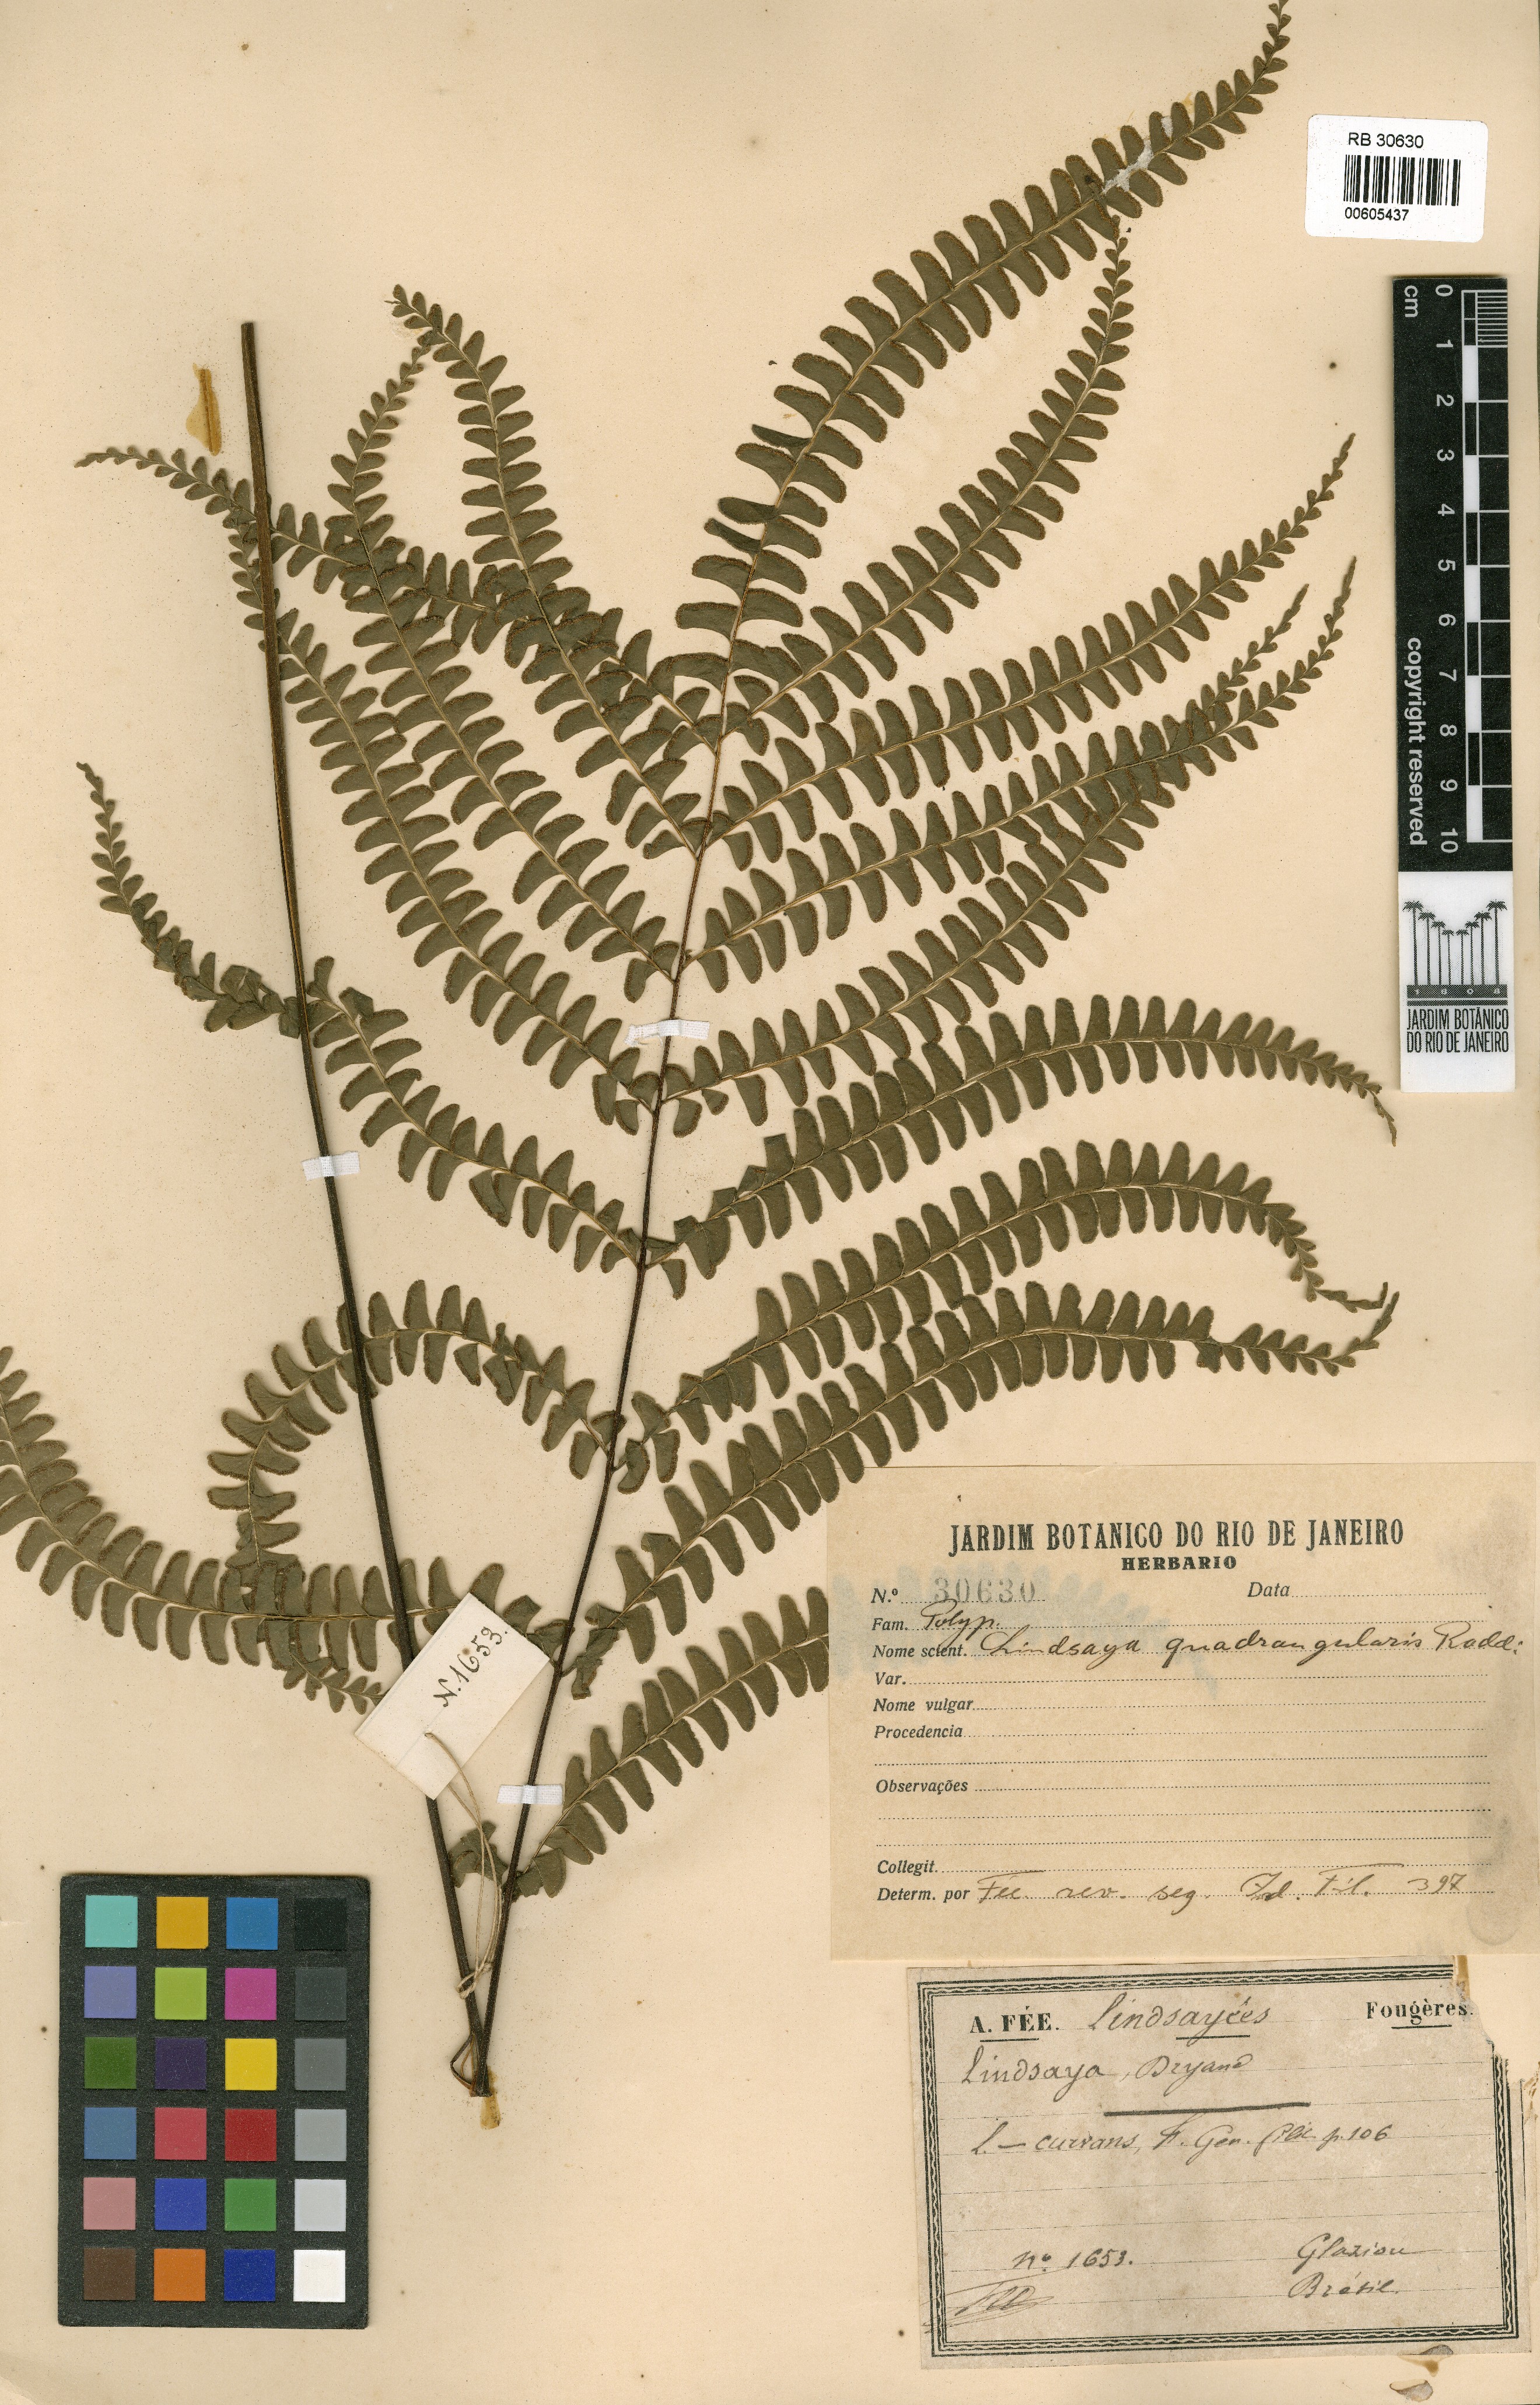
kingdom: Plantae
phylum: Tracheophyta
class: Polypodiopsida
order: Polypodiales
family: Lindsaeaceae
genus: Lindsaea
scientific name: Lindsaea quadrangularis
